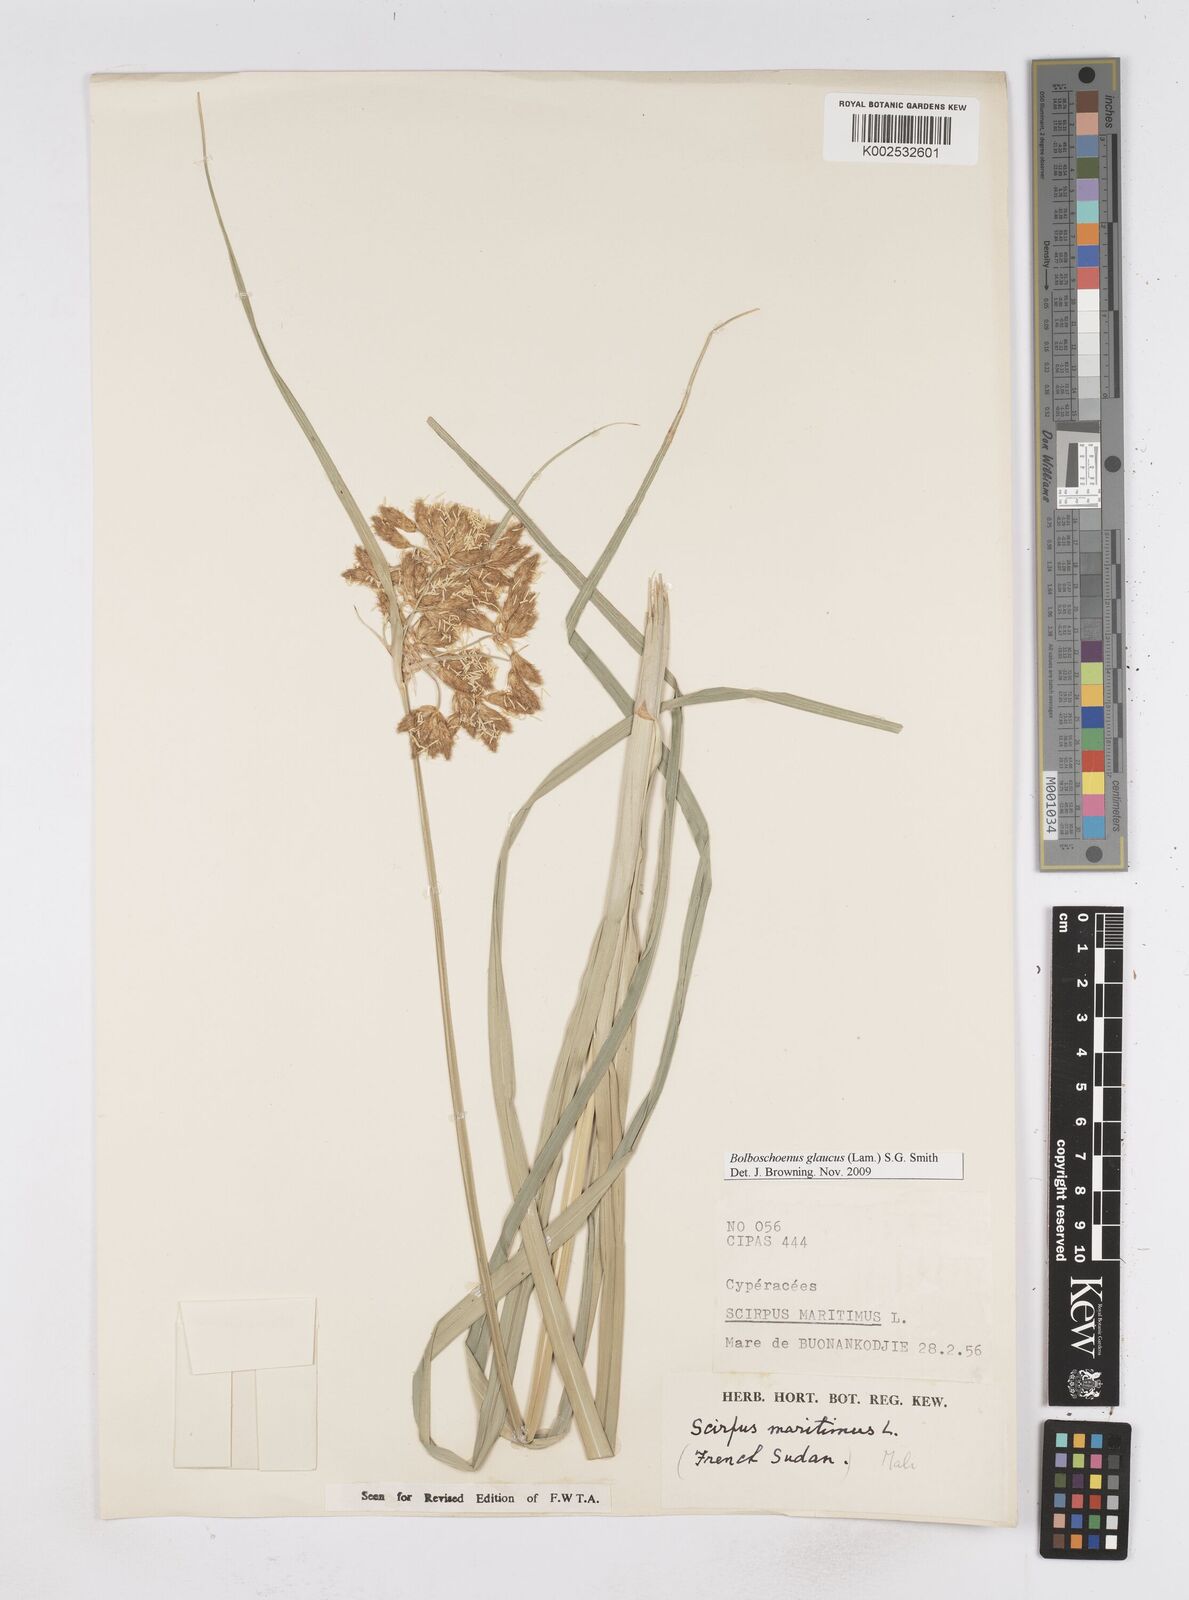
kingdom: Plantae
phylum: Tracheophyta
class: Liliopsida
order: Poales
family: Cyperaceae
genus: Bolboschoenus
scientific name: Bolboschoenus glaucus
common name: Tuberous bulrush
